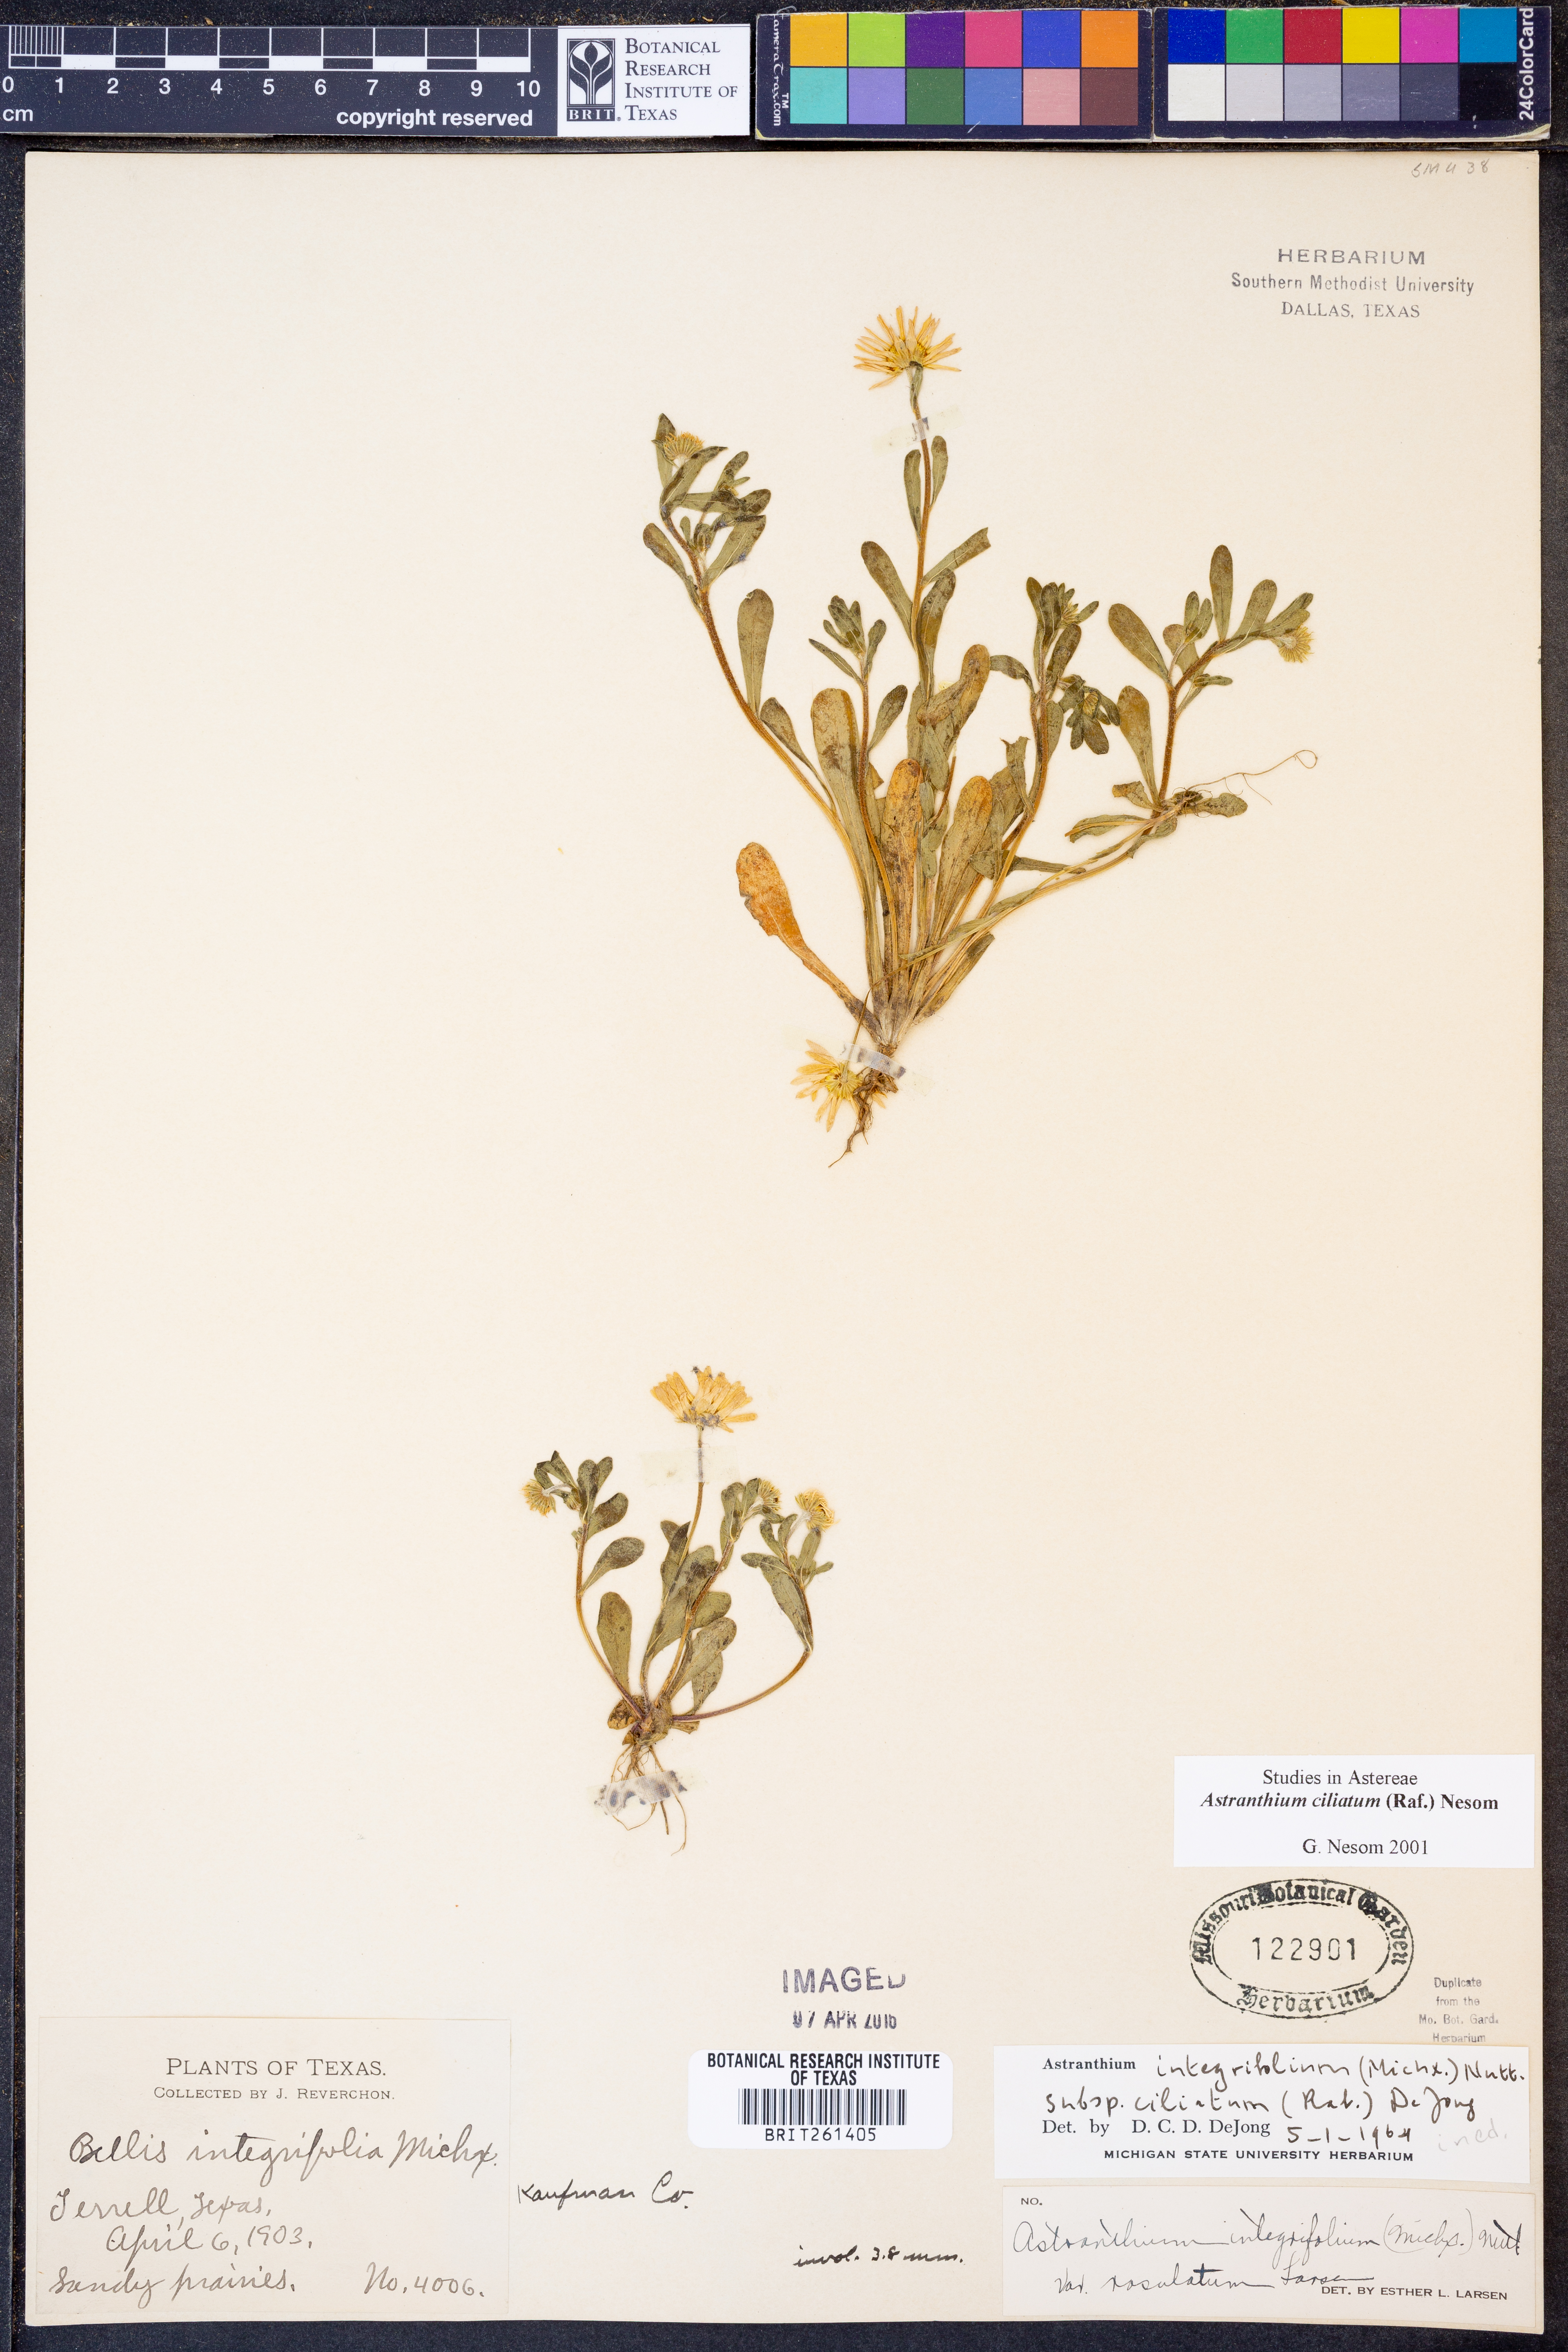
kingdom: Plantae
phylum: Tracheophyta
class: Magnoliopsida
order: Asterales
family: Asteraceae
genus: Astranthium
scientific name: Astranthium ciliatum
